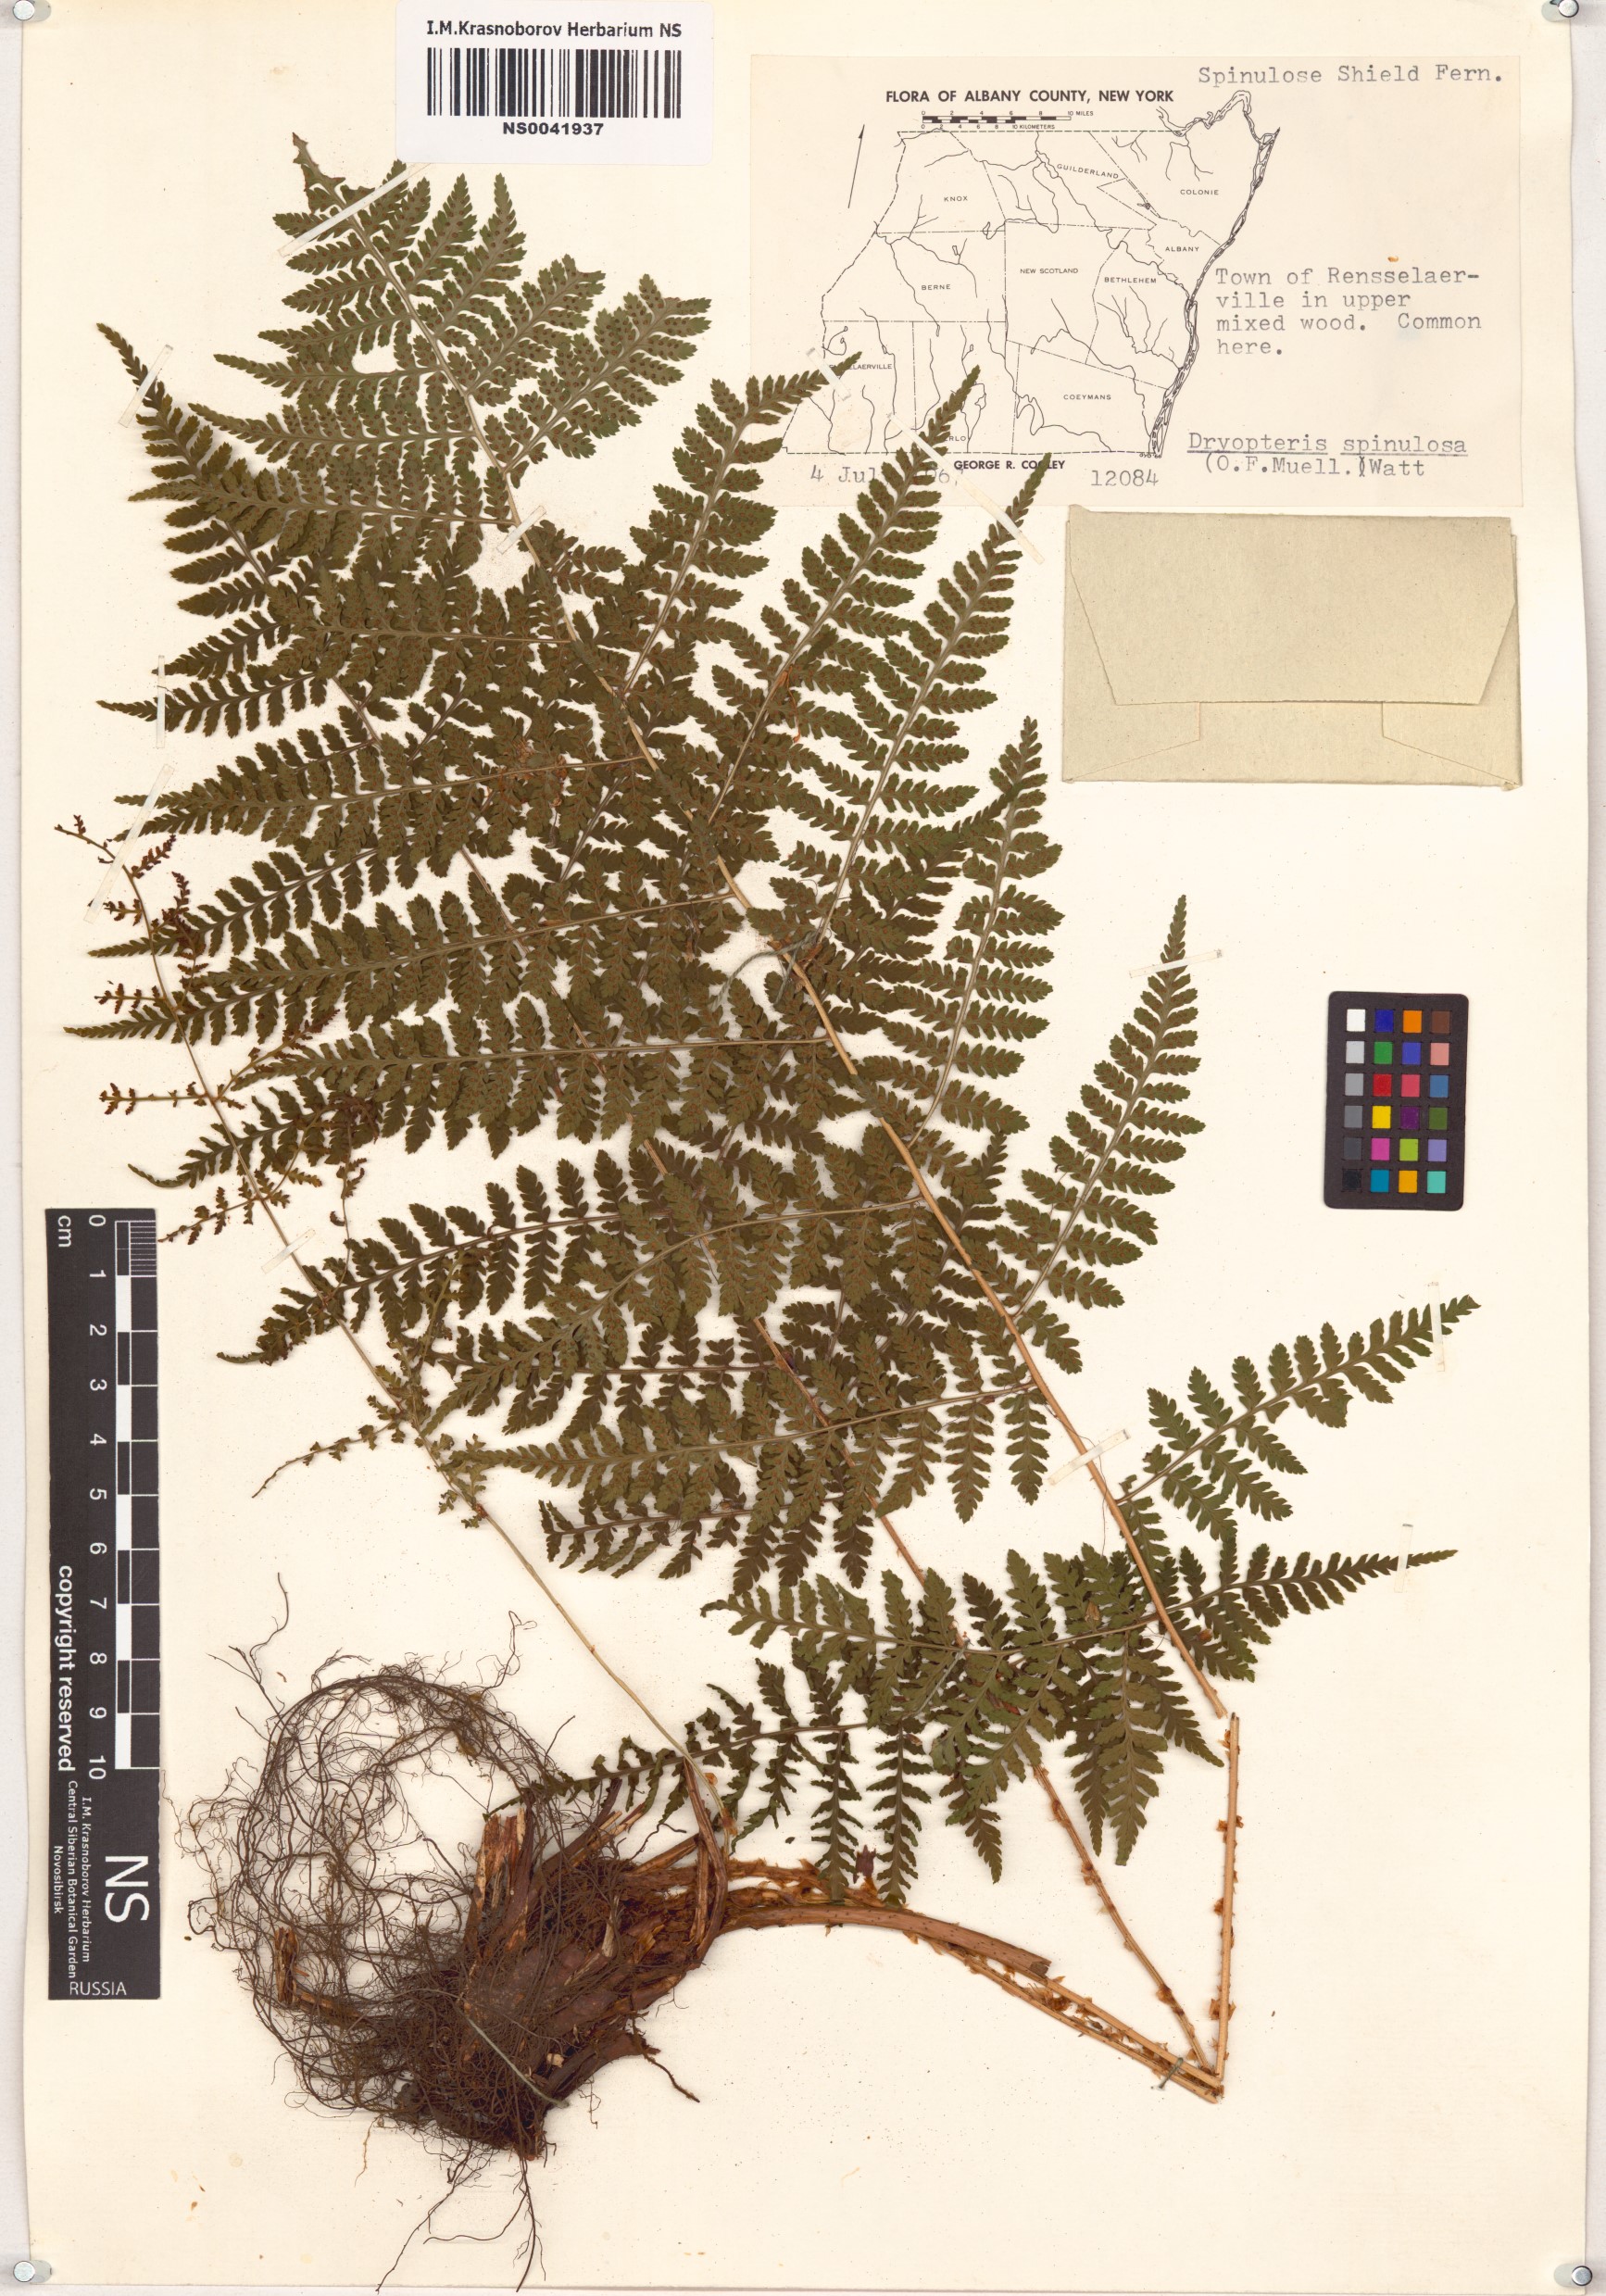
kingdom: Plantae
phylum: Tracheophyta
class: Polypodiopsida
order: Polypodiales
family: Dryopteridaceae
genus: Dryopteris
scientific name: Dryopteris carthusiana
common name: Narrow buckler-fern
